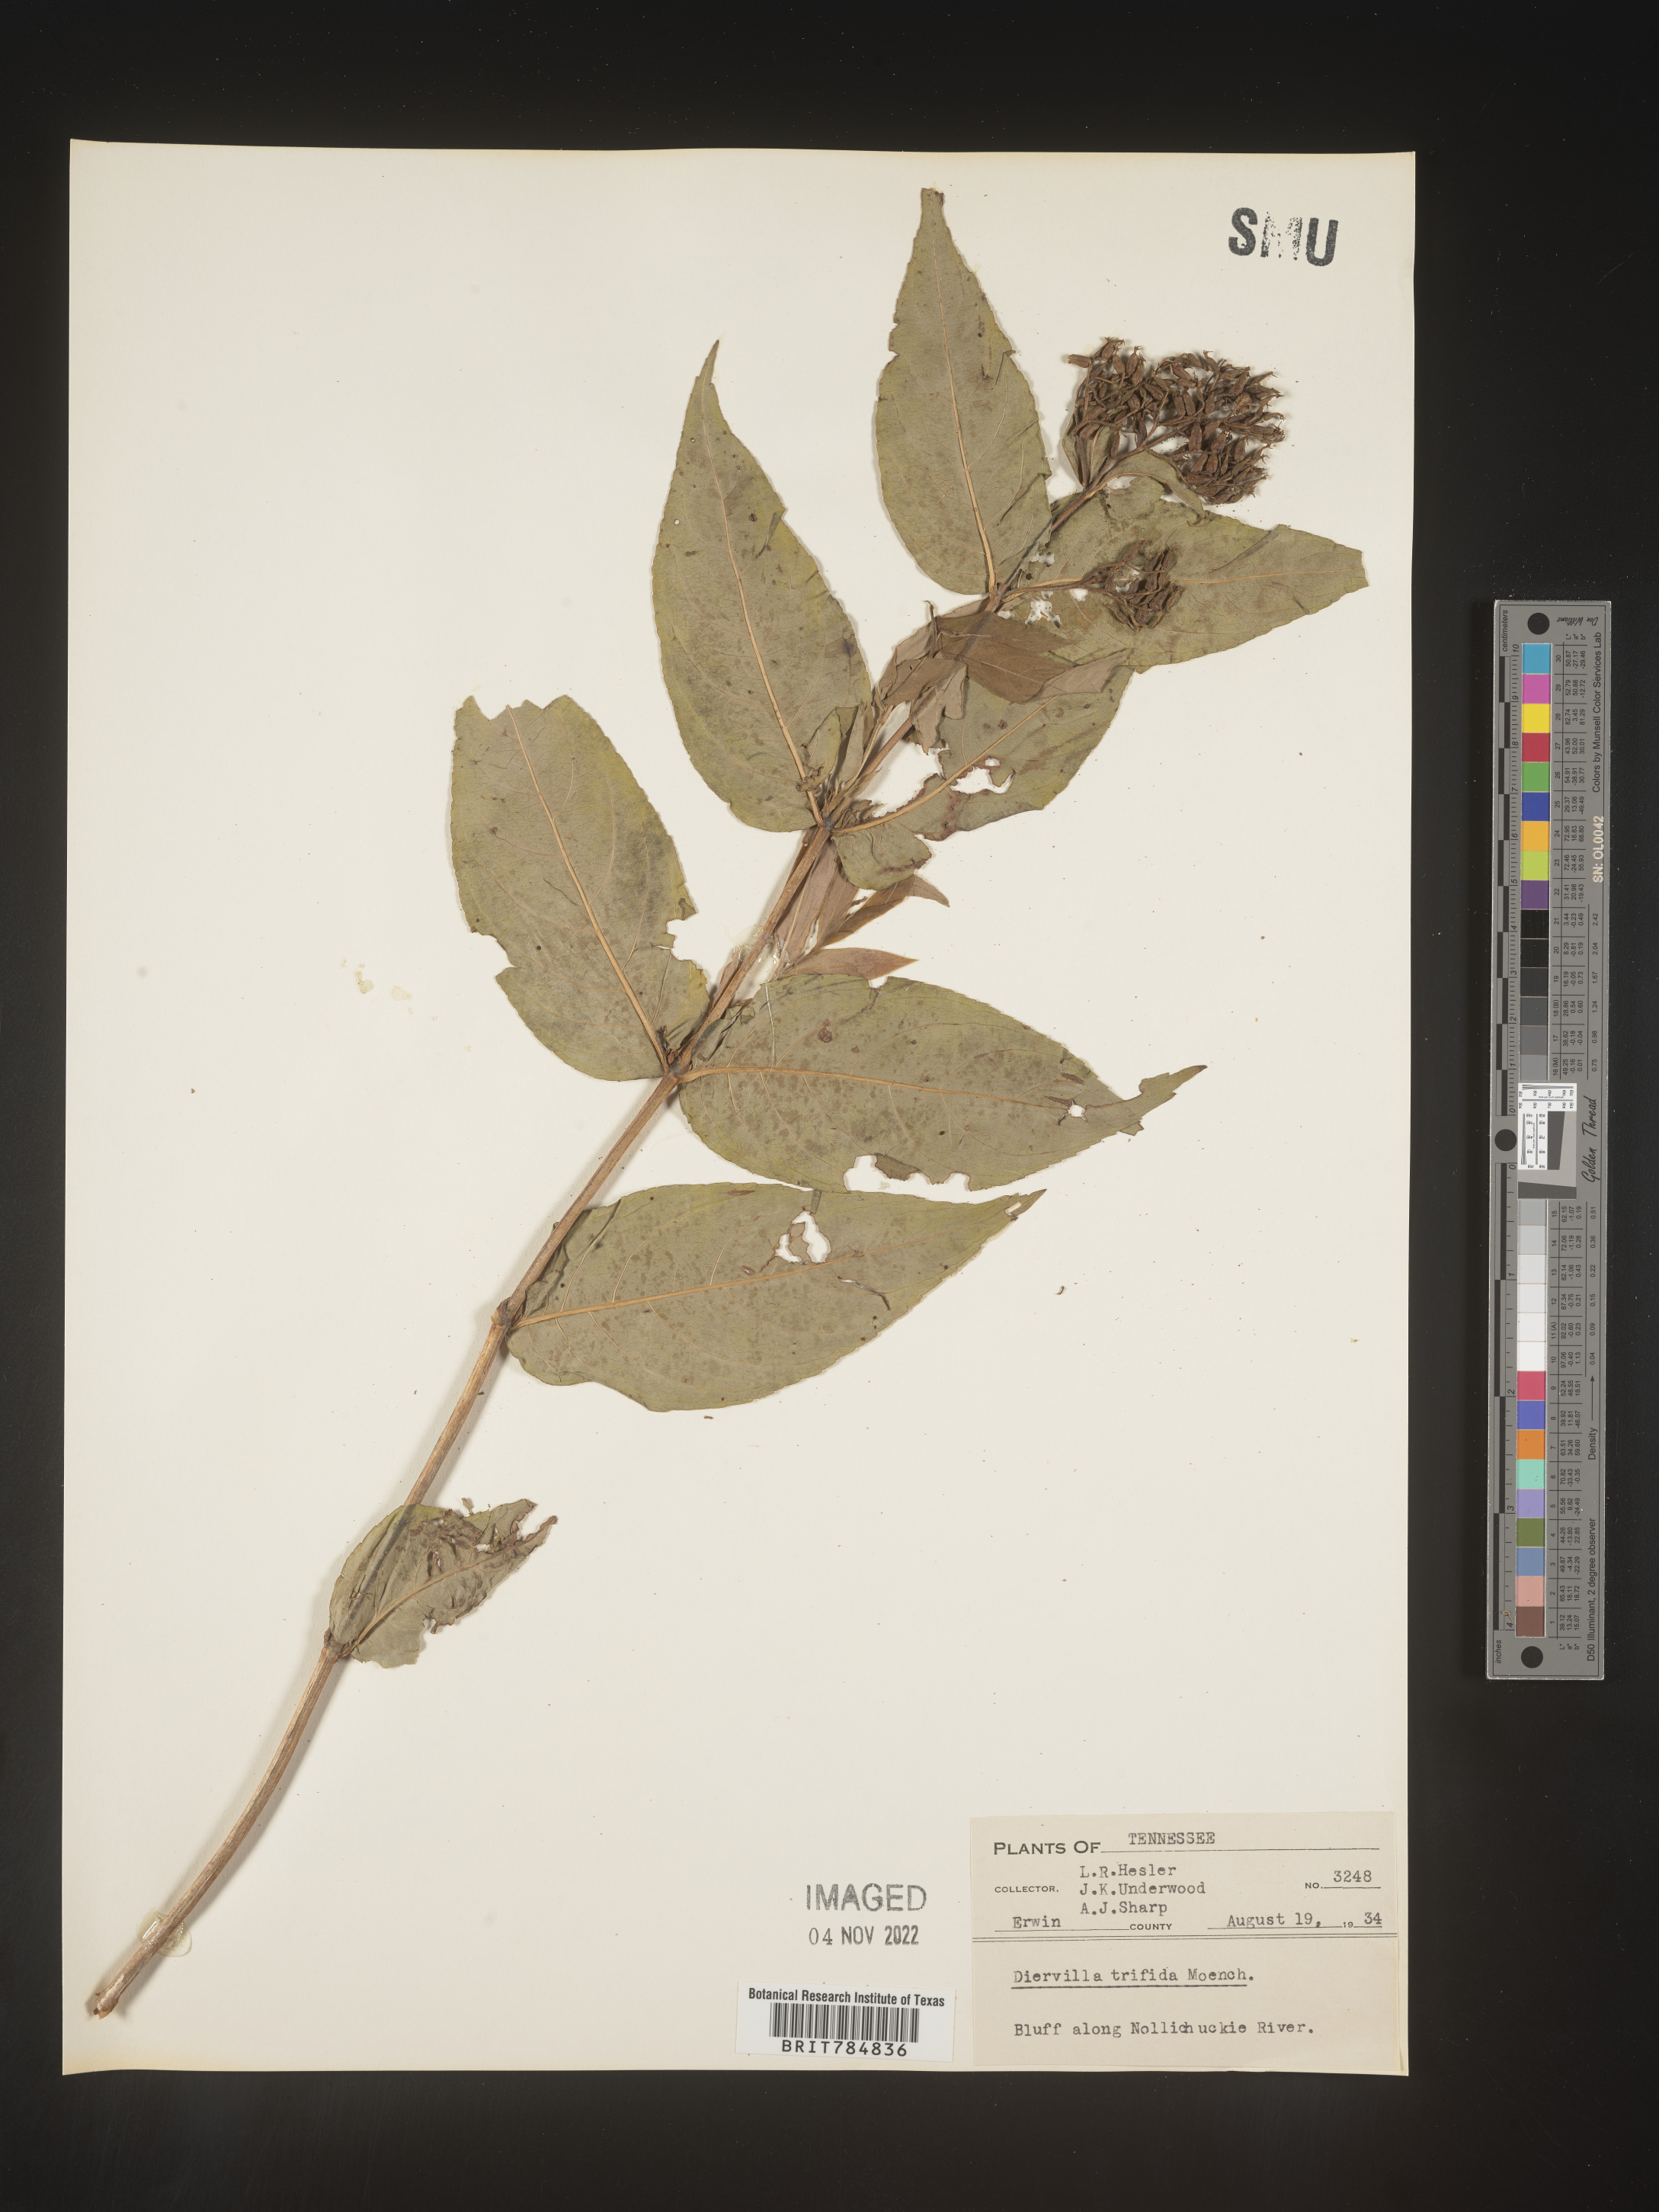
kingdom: Plantae
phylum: Tracheophyta
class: Magnoliopsida
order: Dipsacales
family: Caprifoliaceae
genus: Diervilla
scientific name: Diervilla
